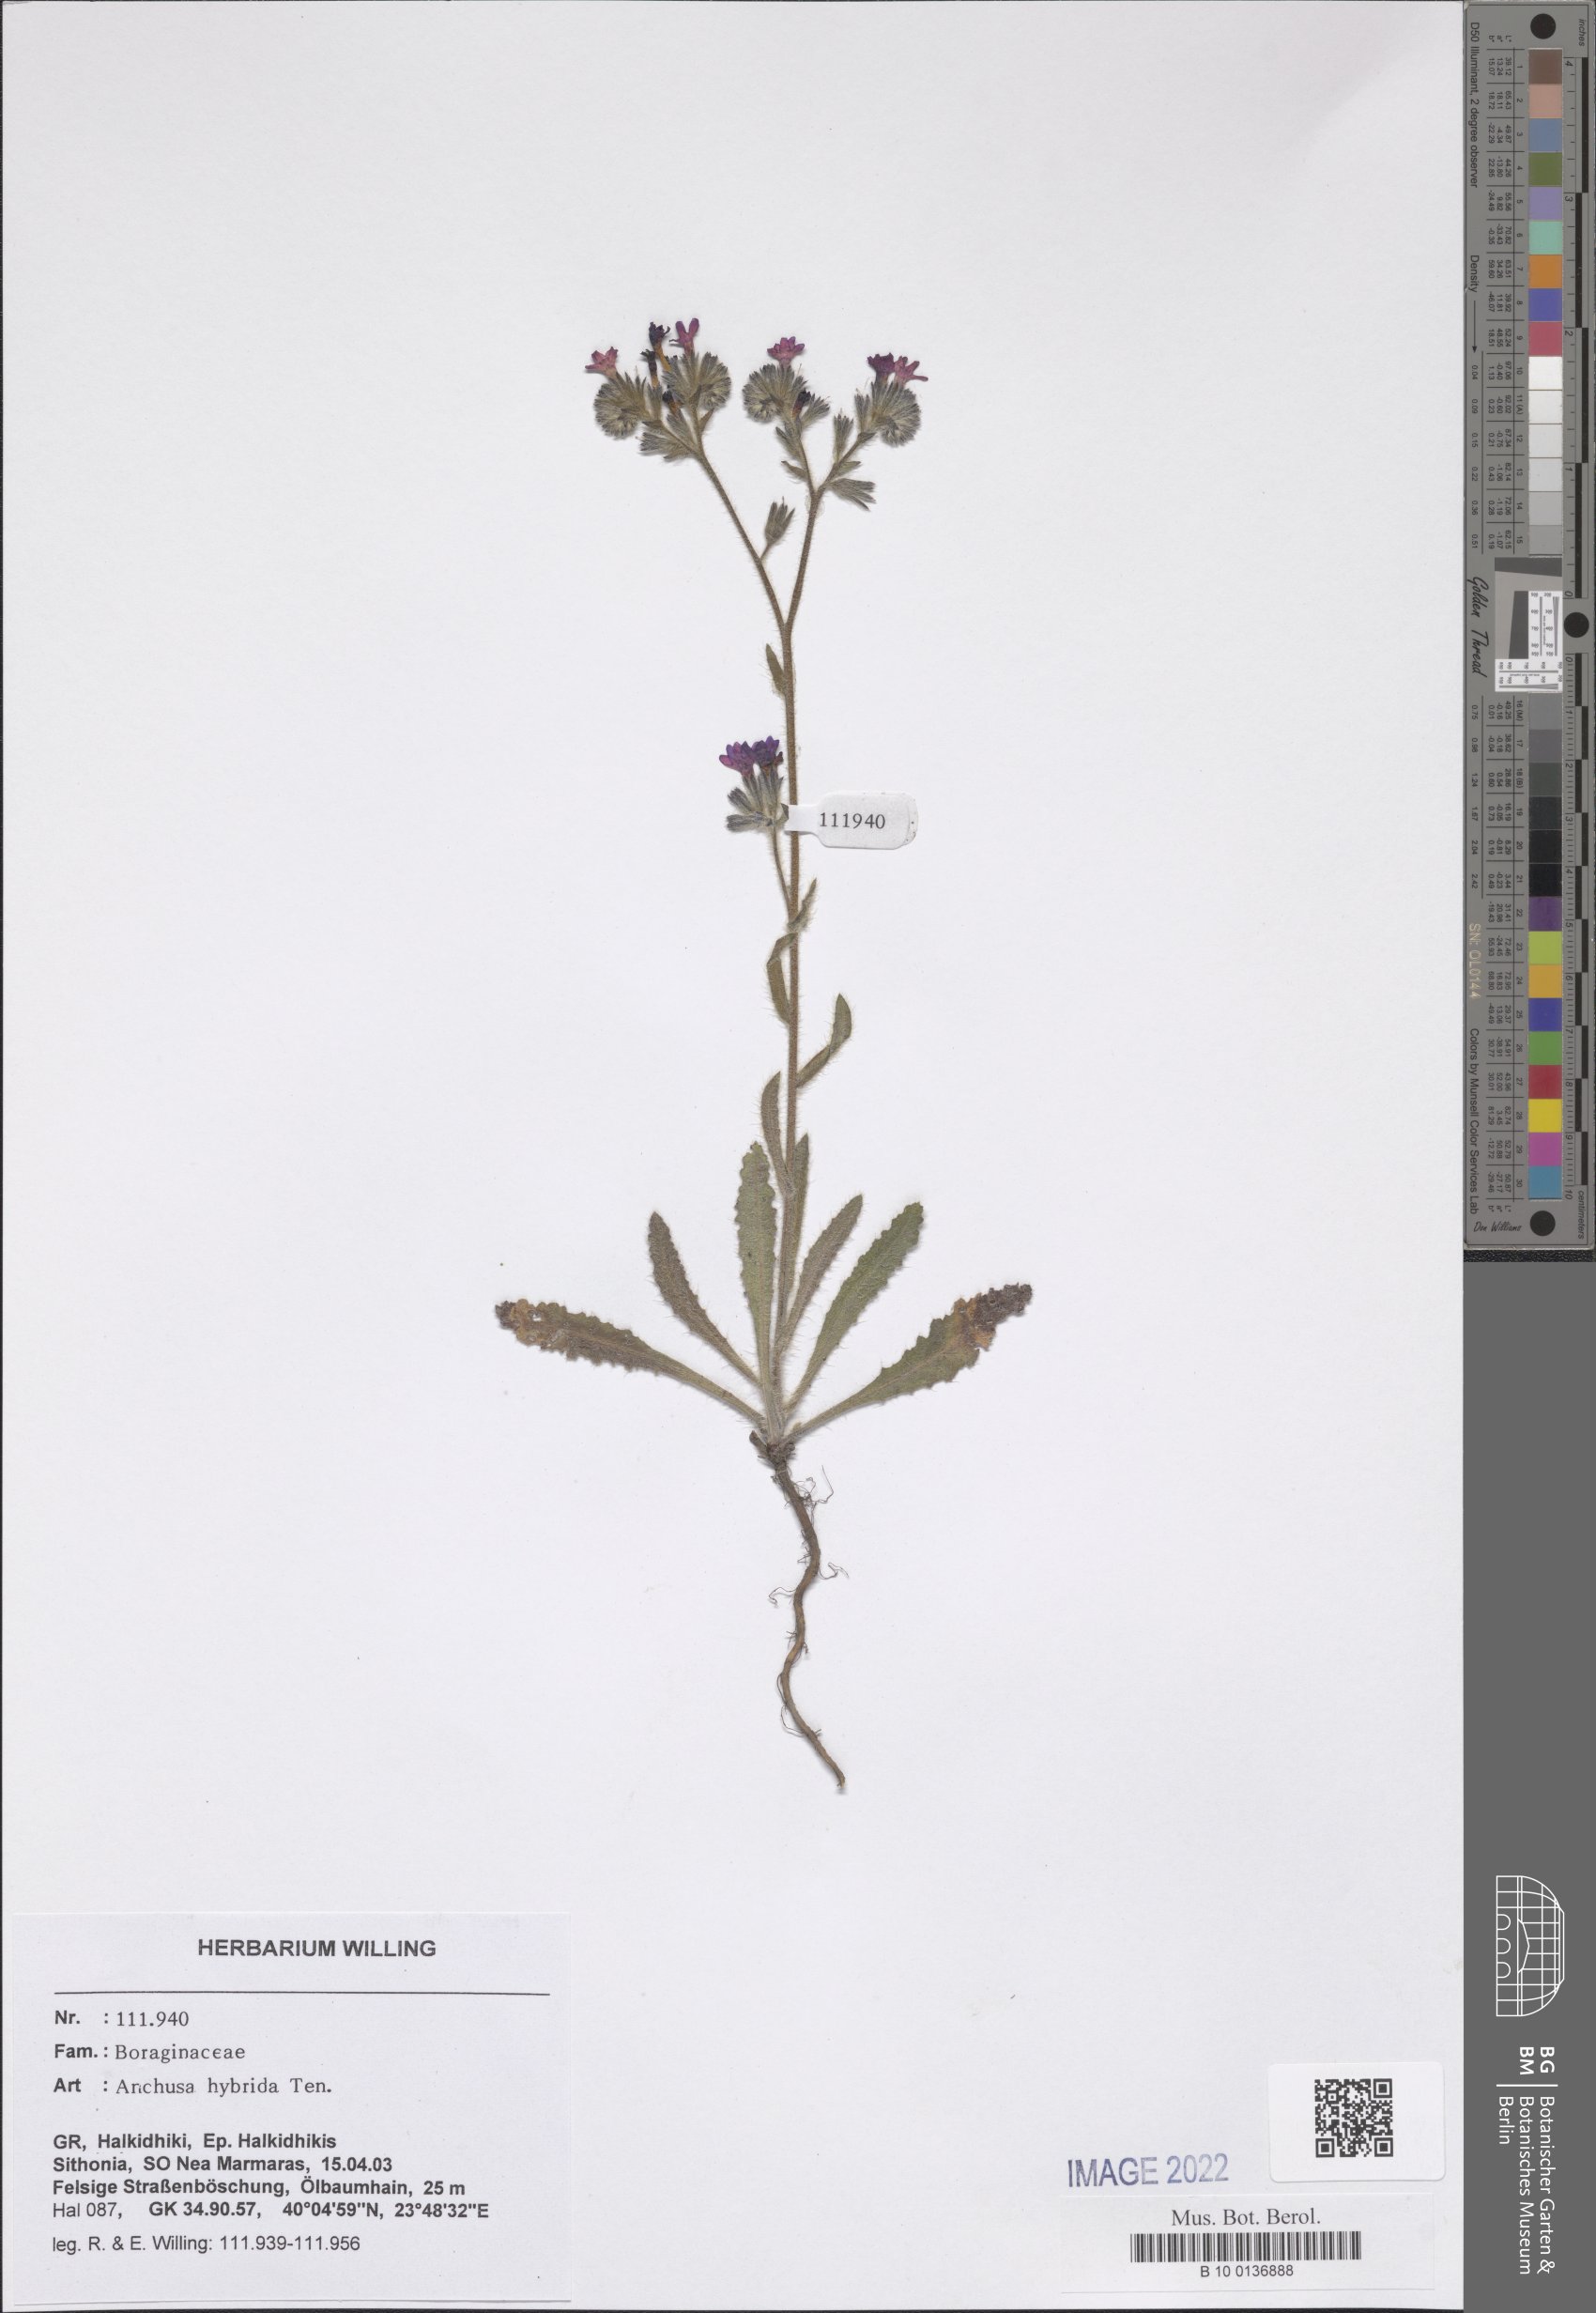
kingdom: Plantae
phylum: Tracheophyta
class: Magnoliopsida
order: Boraginales
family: Boraginaceae
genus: Anchusa
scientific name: Anchusa hybrida
